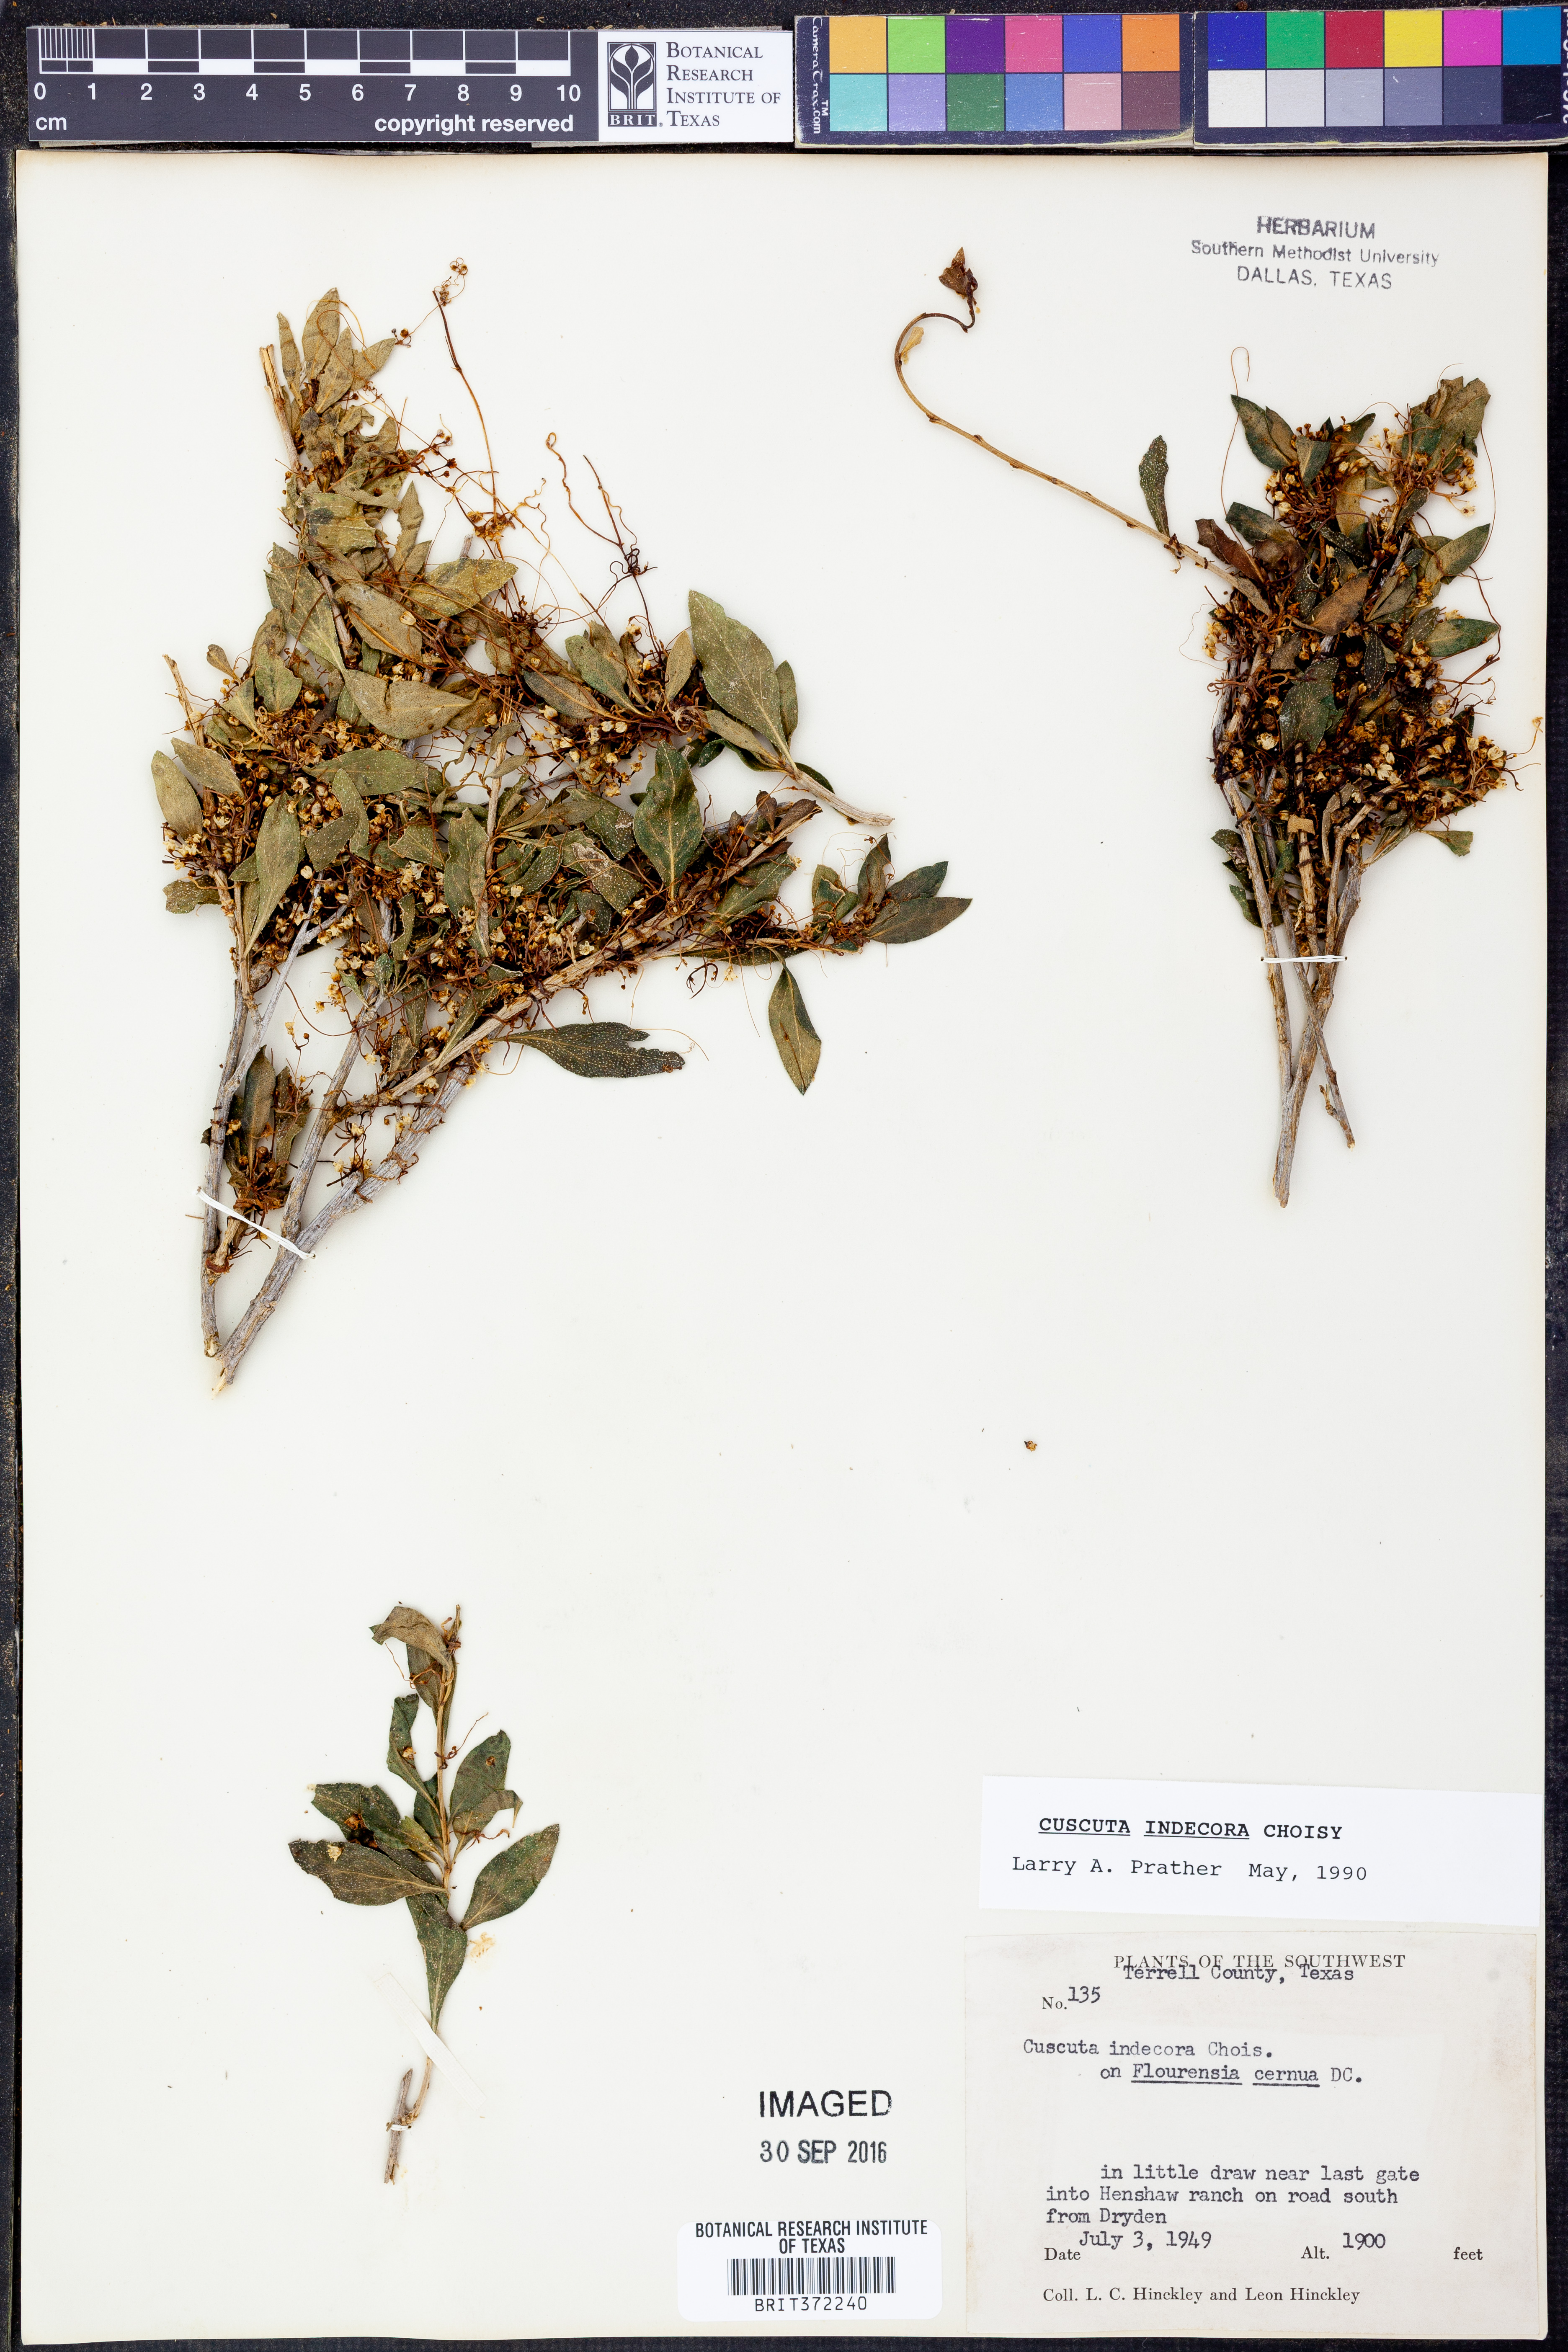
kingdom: Plantae
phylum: Tracheophyta
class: Magnoliopsida
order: Solanales
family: Convolvulaceae
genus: Cuscuta
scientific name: Cuscuta indecora
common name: Large-seed dodder
